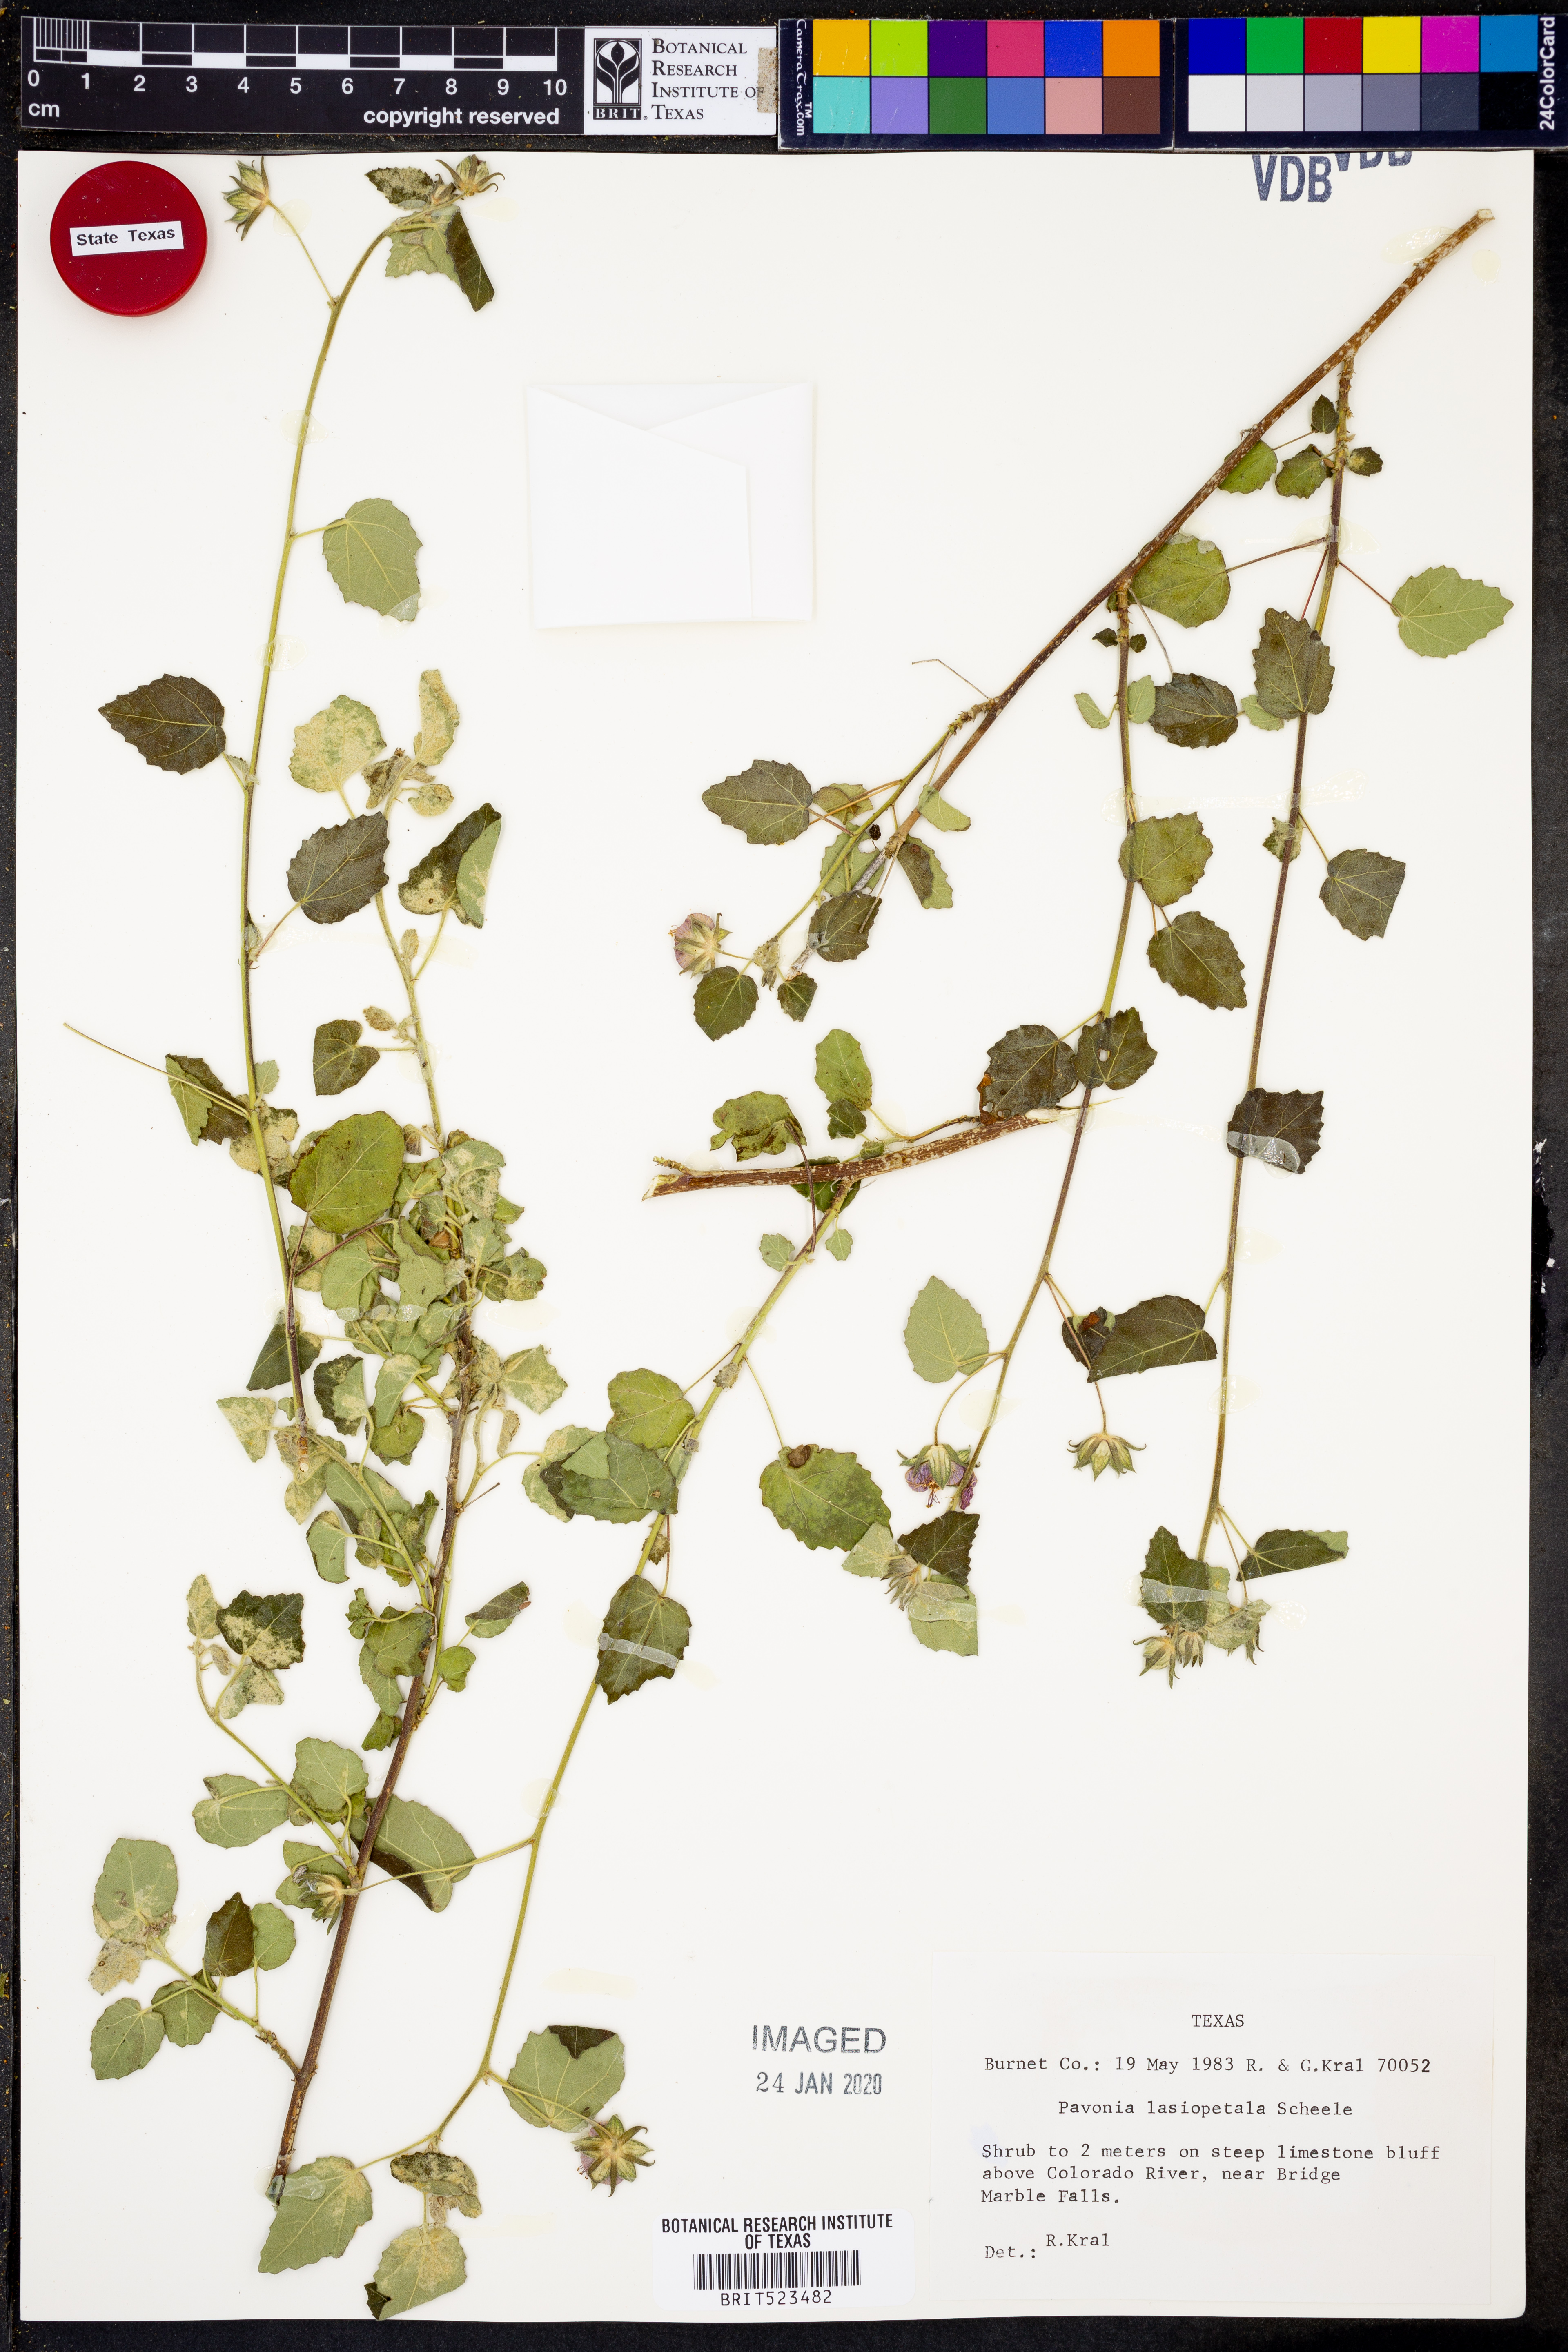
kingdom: Plantae
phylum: Tracheophyta
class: Magnoliopsida
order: Malvales
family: Malvaceae
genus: Pavonia
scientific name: Pavonia lasiopetala
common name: Texas swamp-mallow
